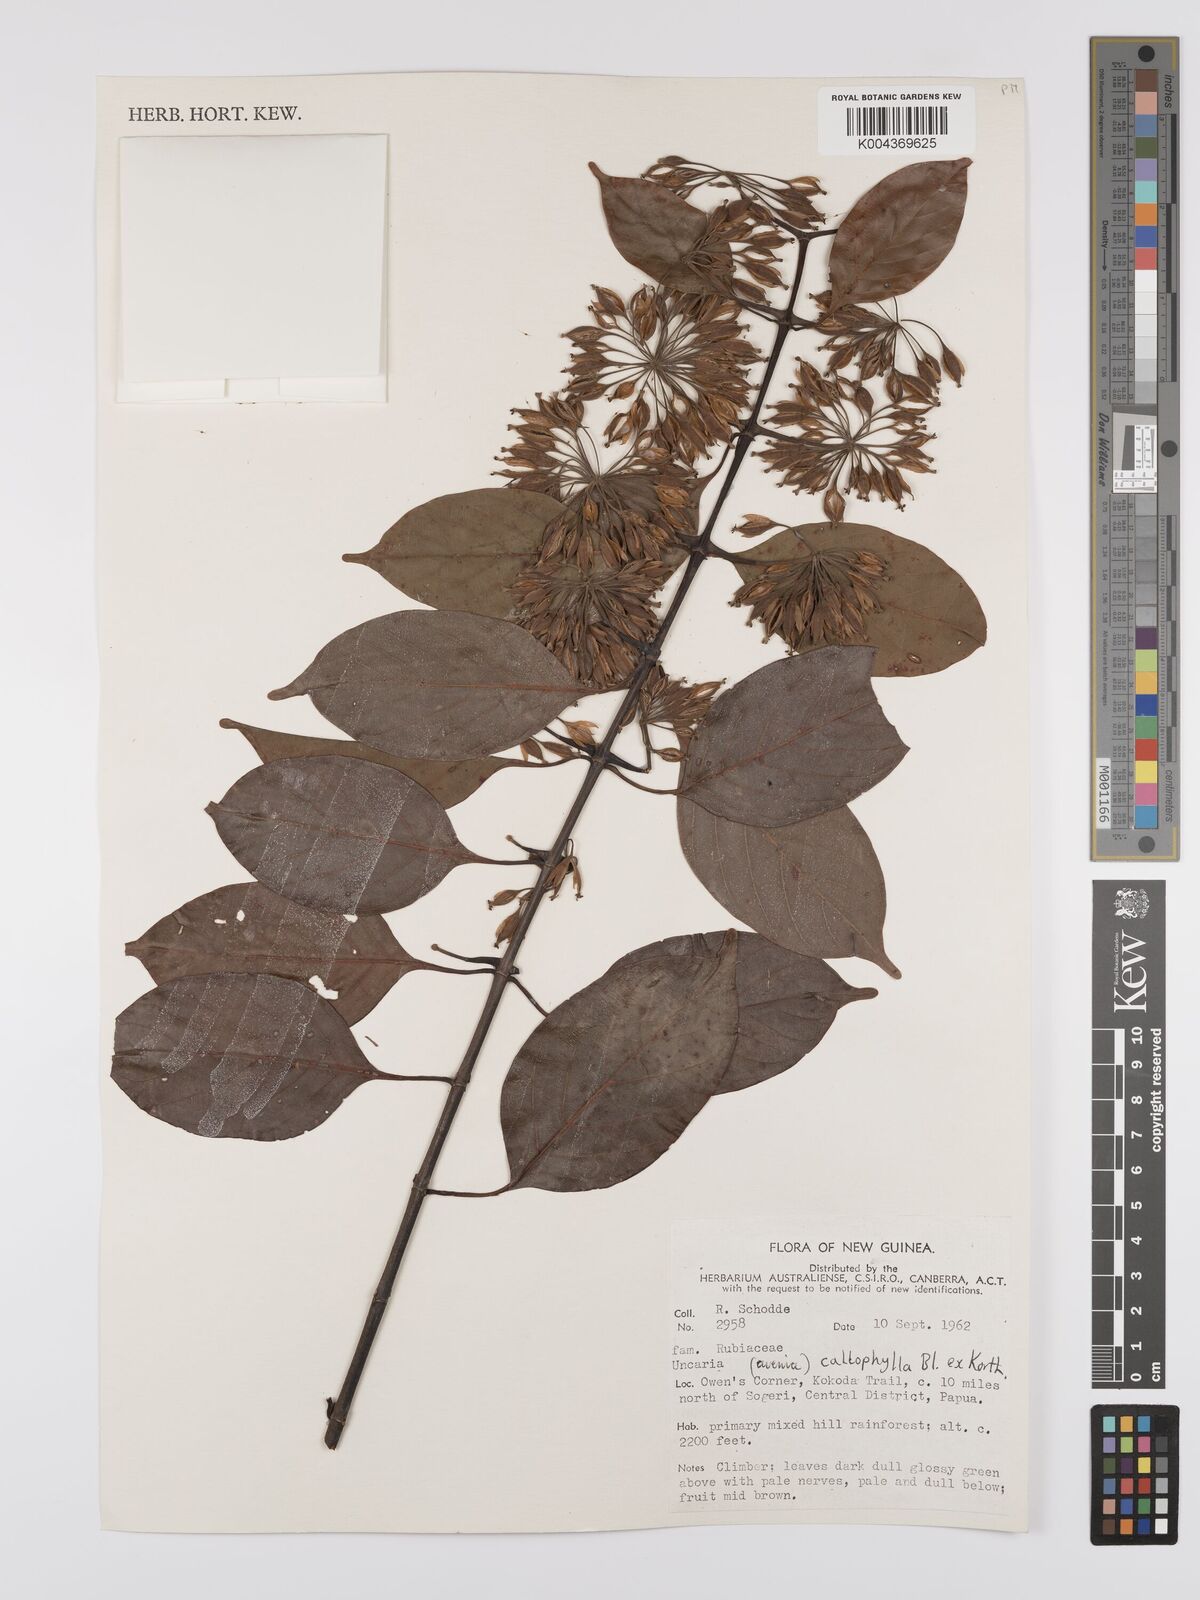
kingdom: Plantae
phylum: Tracheophyta
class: Magnoliopsida
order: Gentianales
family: Rubiaceae
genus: Uncaria
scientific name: Uncaria callophylla
